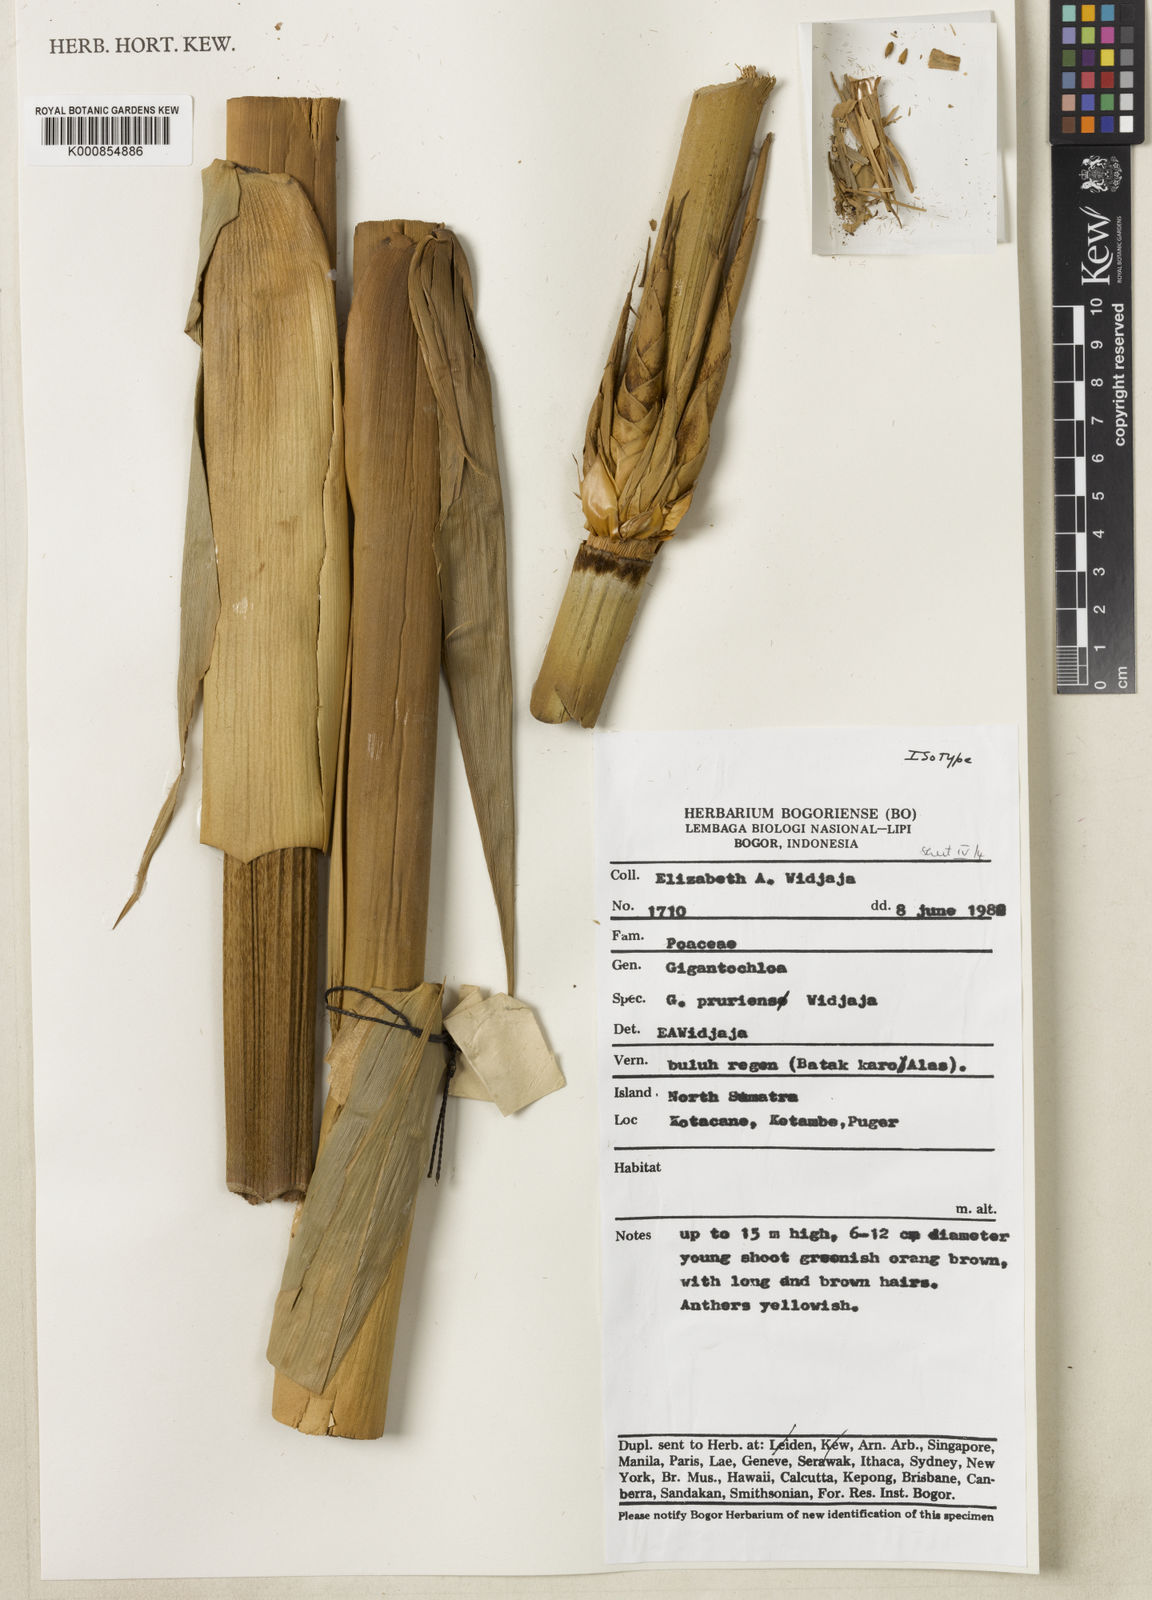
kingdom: Plantae
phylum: Tracheophyta
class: Liliopsida
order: Poales
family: Poaceae
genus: Gigantochloa
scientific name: Gigantochloa pruriens
